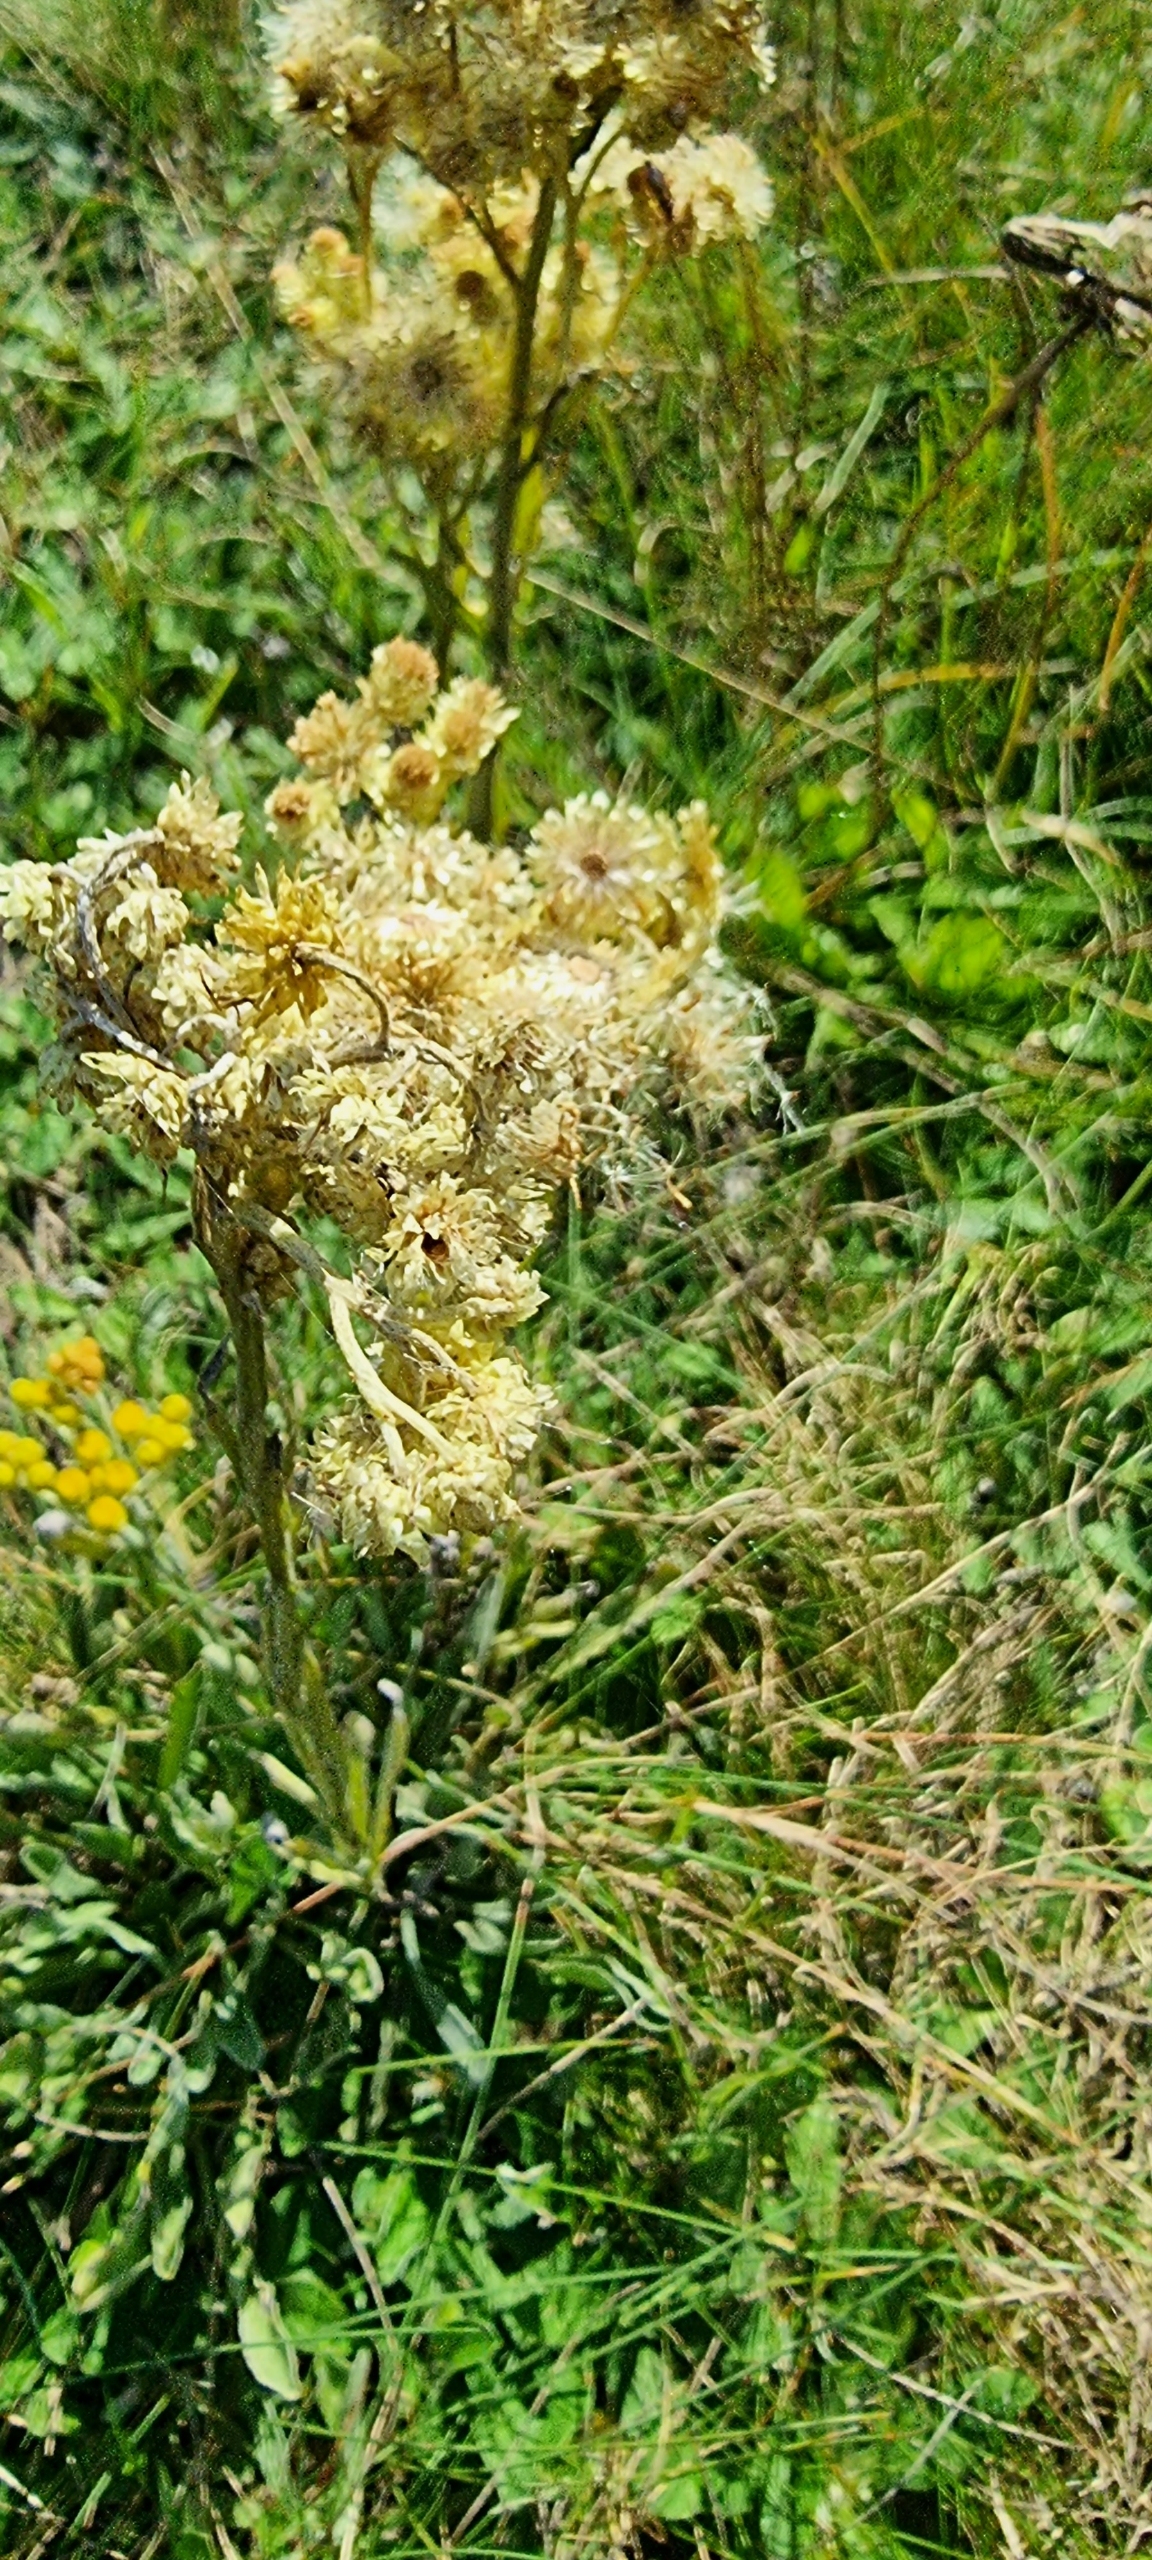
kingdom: Plantae
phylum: Tracheophyta
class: Magnoliopsida
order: Asterales
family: Asteraceae
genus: Helichrysum
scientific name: Helichrysum arenarium
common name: Gul evighedsblomst
